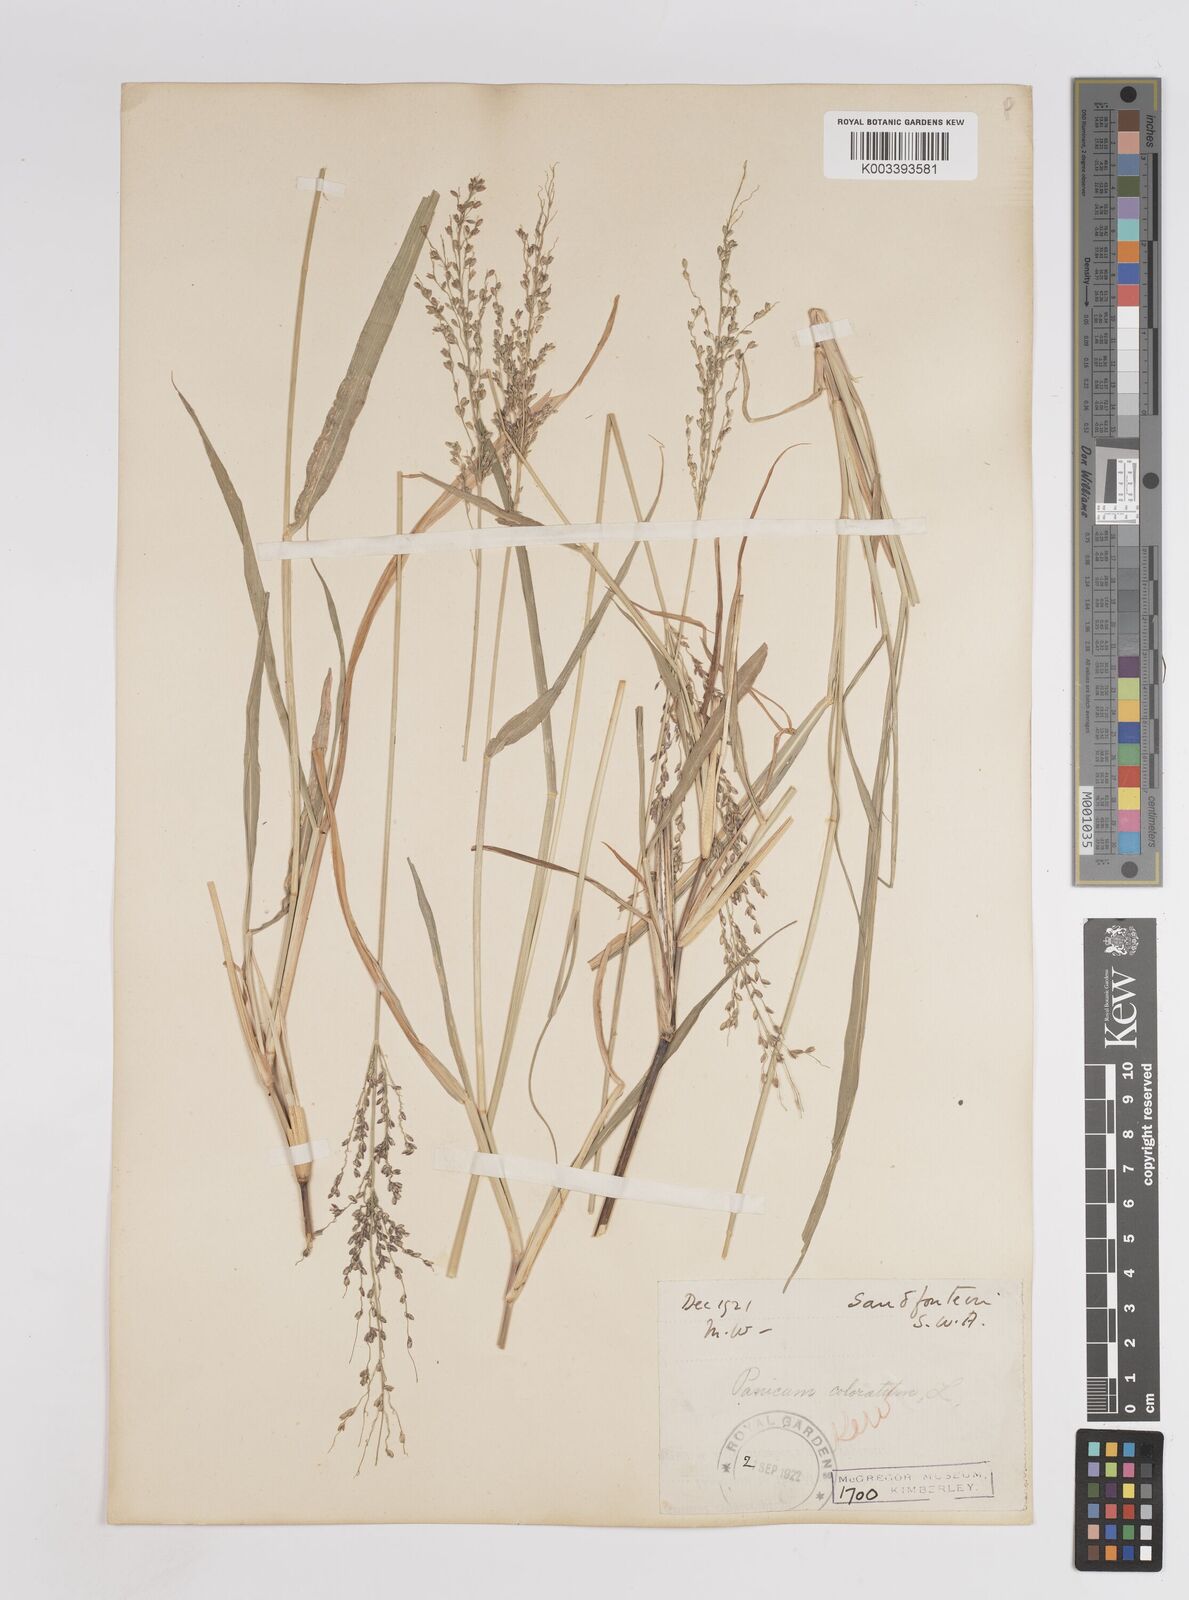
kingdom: Plantae
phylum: Tracheophyta
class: Liliopsida
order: Poales
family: Poaceae
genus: Megathyrsus
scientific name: Megathyrsus maximus
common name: Guineagrass
